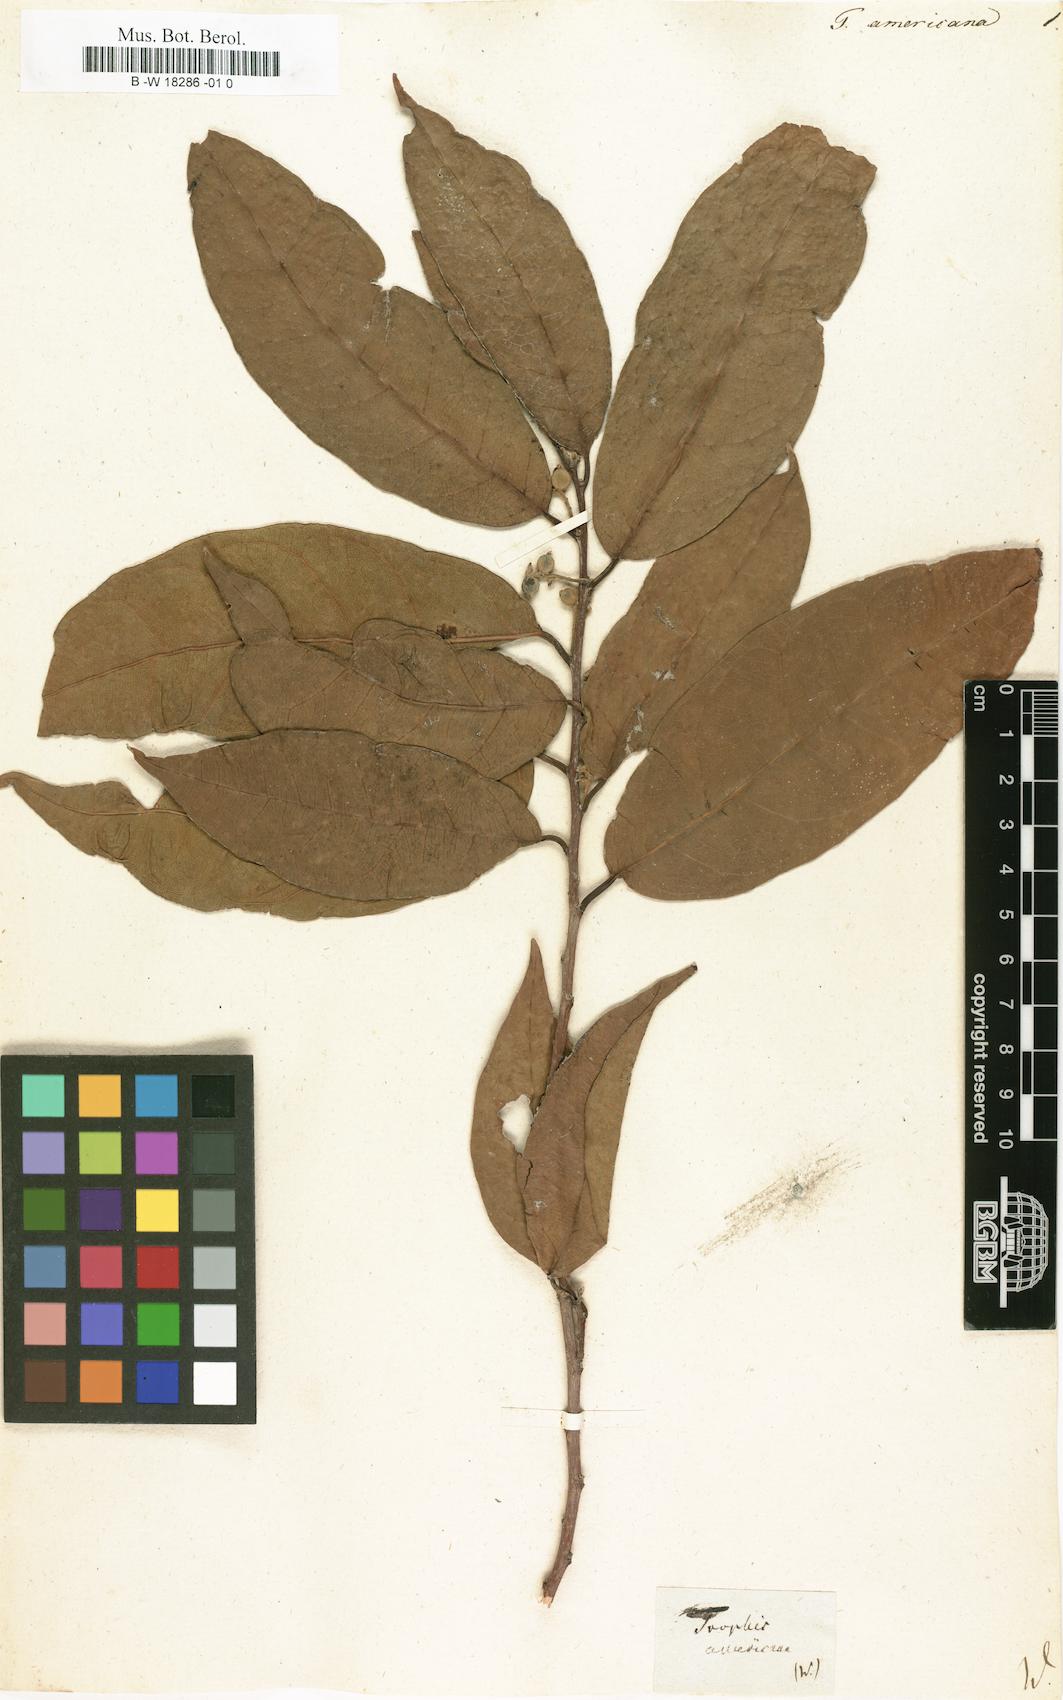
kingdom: Plantae
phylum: Tracheophyta
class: Magnoliopsida
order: Rosales
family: Moraceae
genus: Trophis
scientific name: Trophis racemosa
